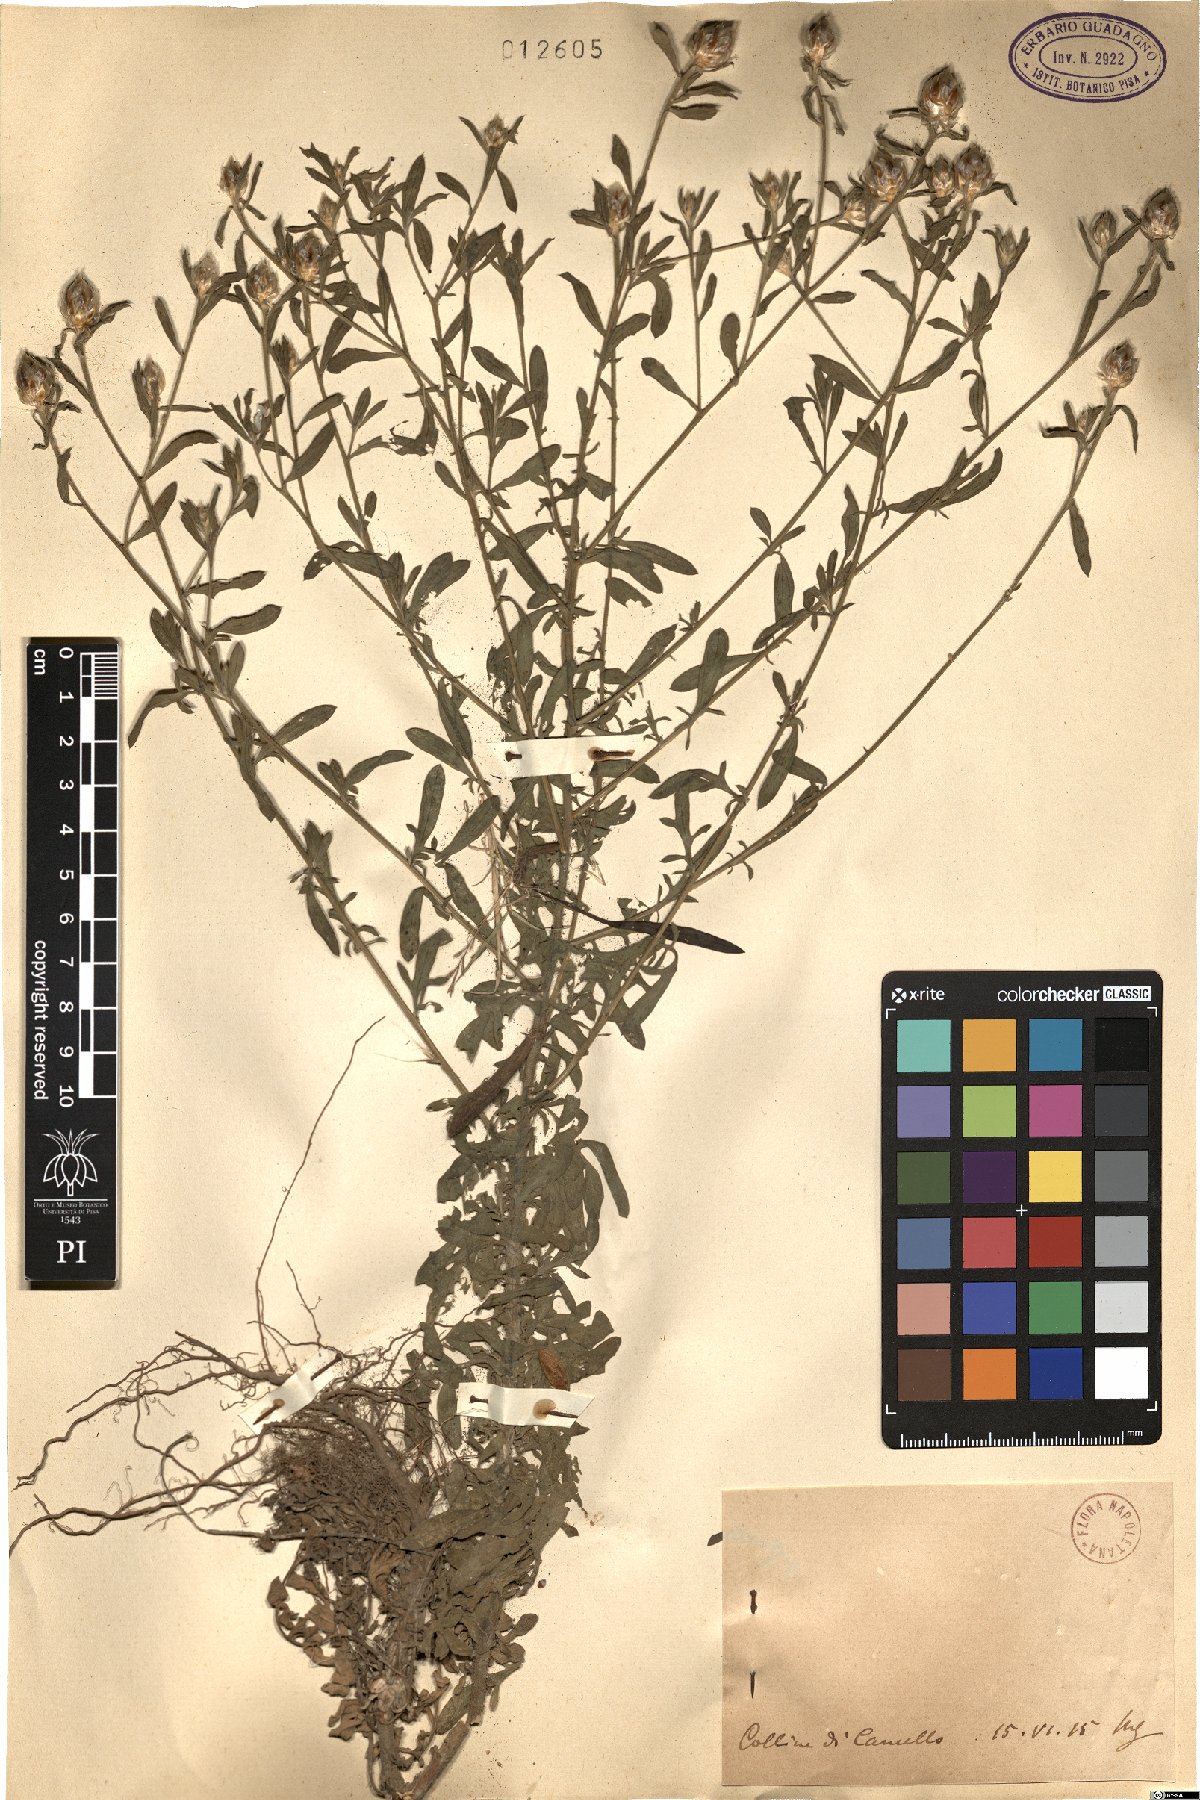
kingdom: Plantae
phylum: Tracheophyta
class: Magnoliopsida
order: Asterales
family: Asteraceae
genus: Centaurea
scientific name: Centaurea
